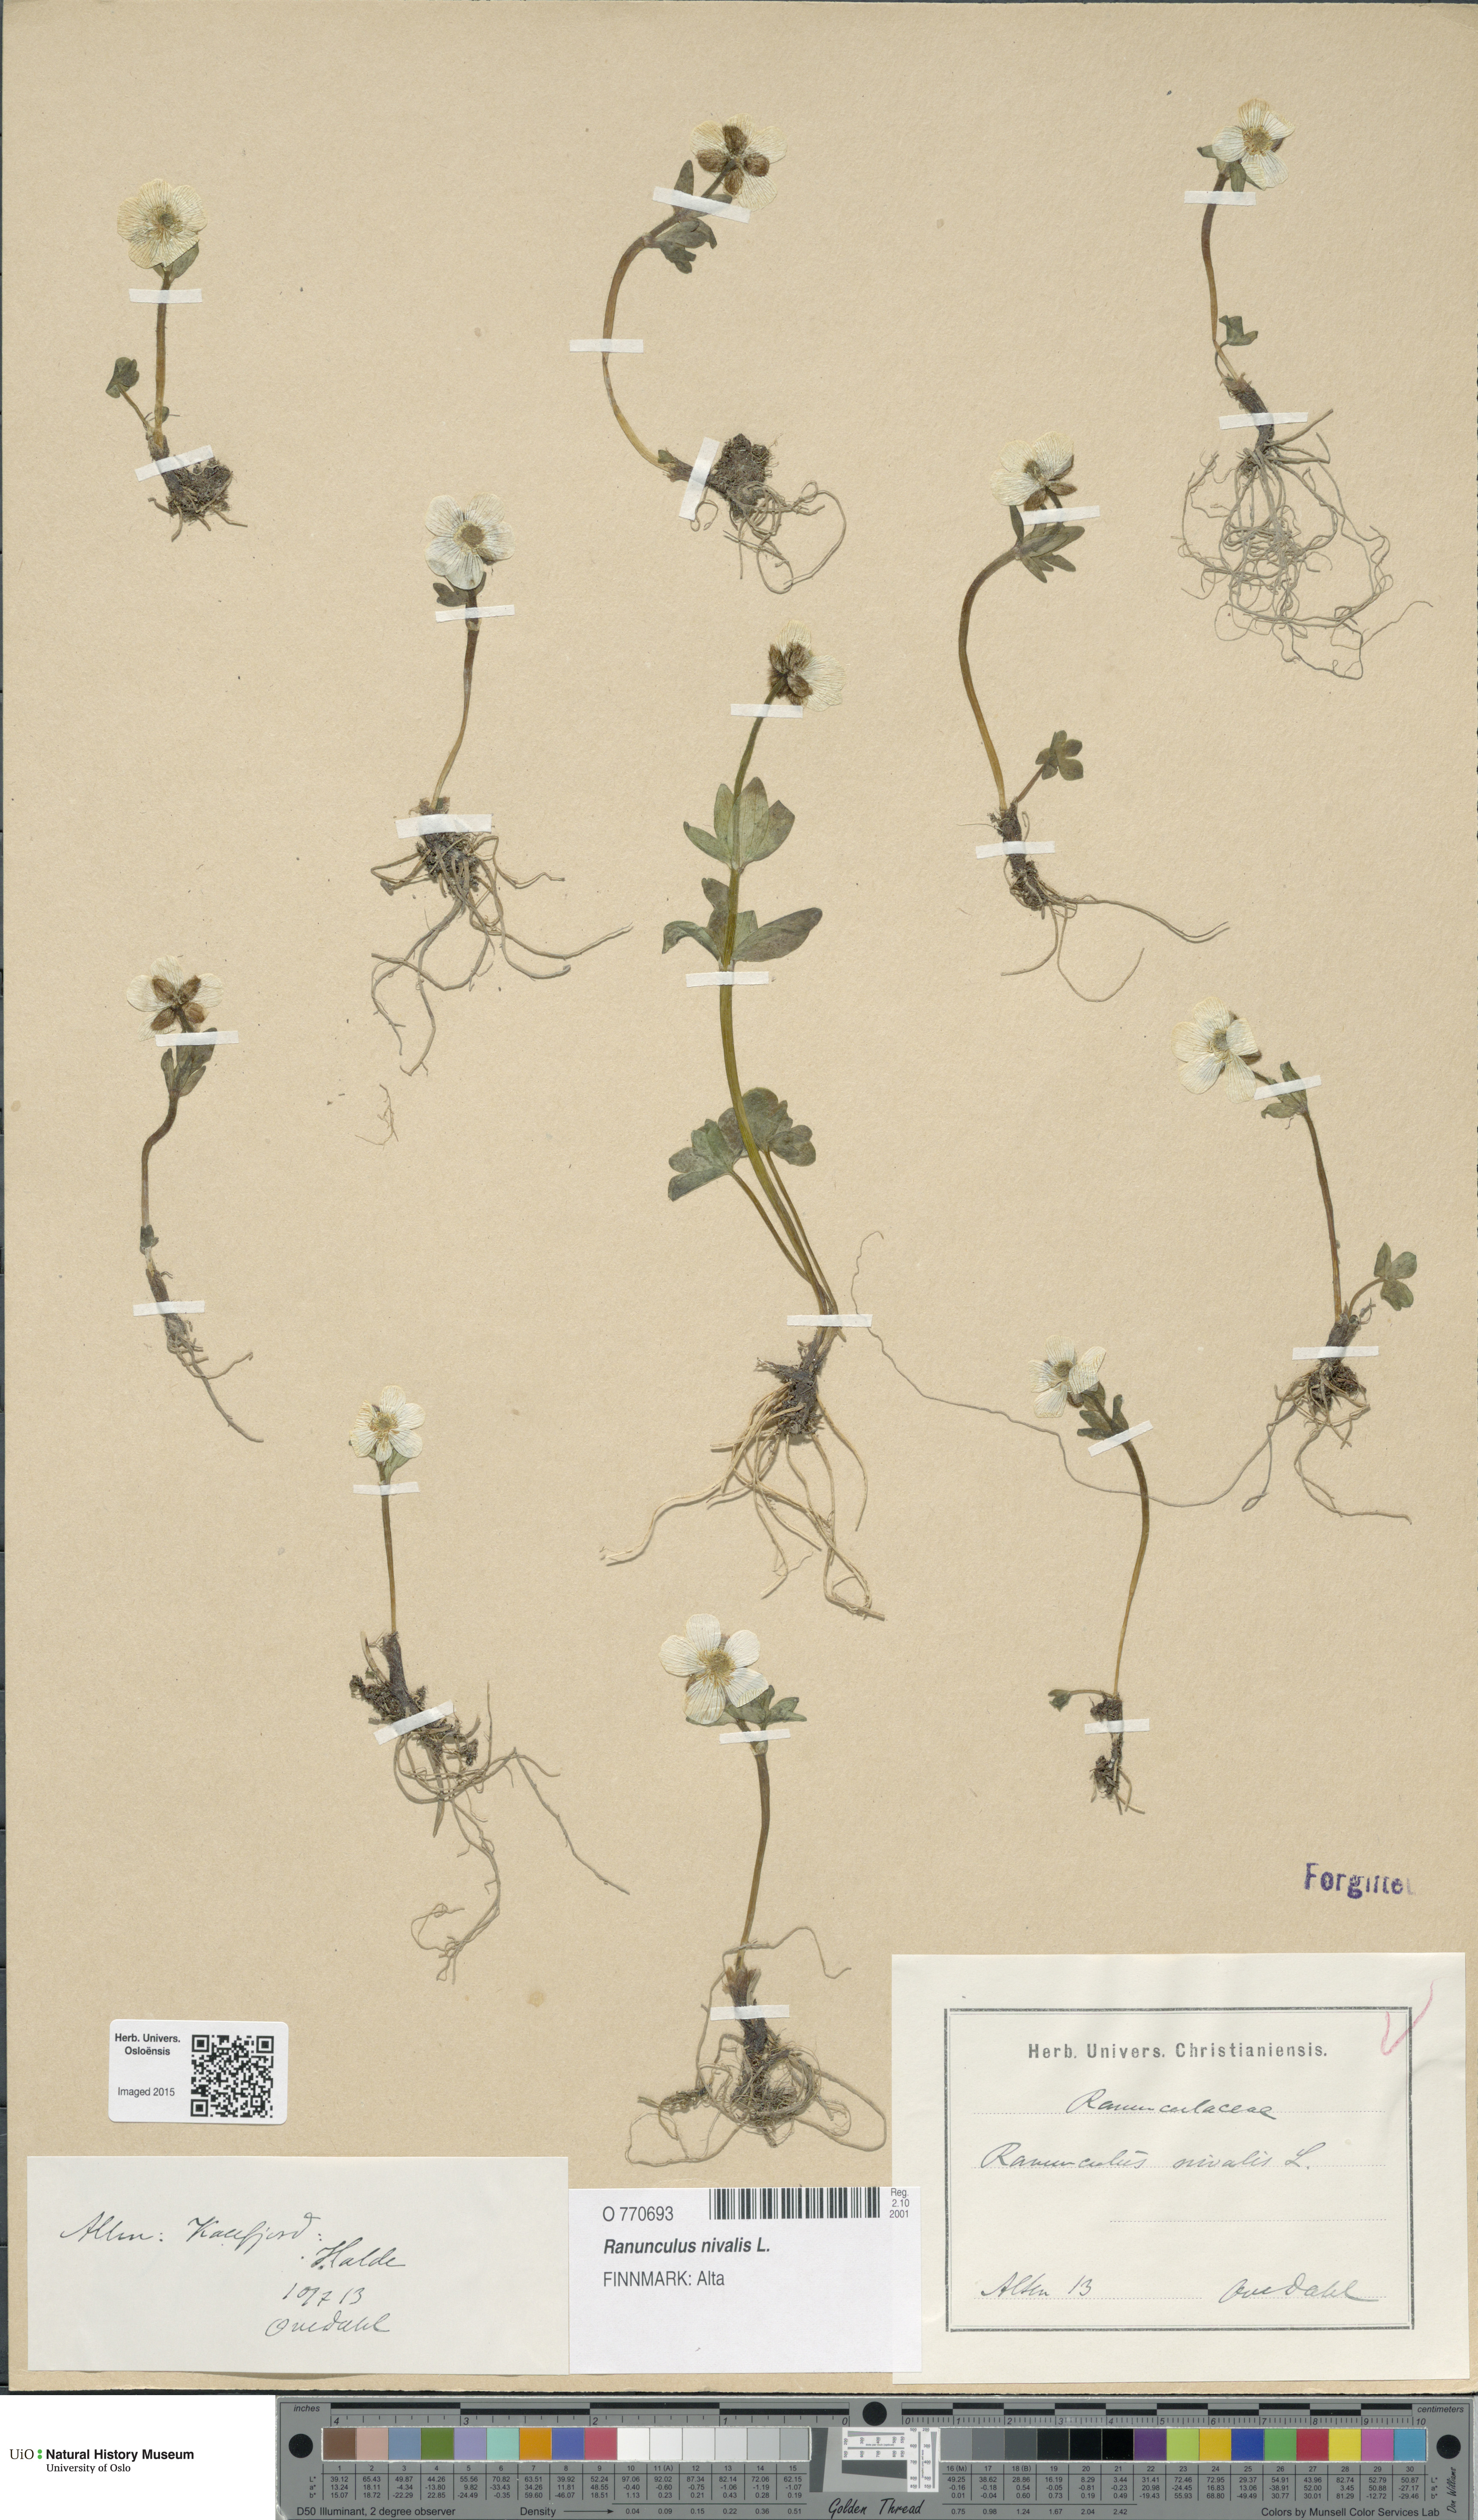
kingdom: Plantae
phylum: Tracheophyta
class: Magnoliopsida
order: Ranunculales
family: Ranunculaceae
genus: Ranunculus
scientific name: Ranunculus nivalis
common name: Snow buttercup
